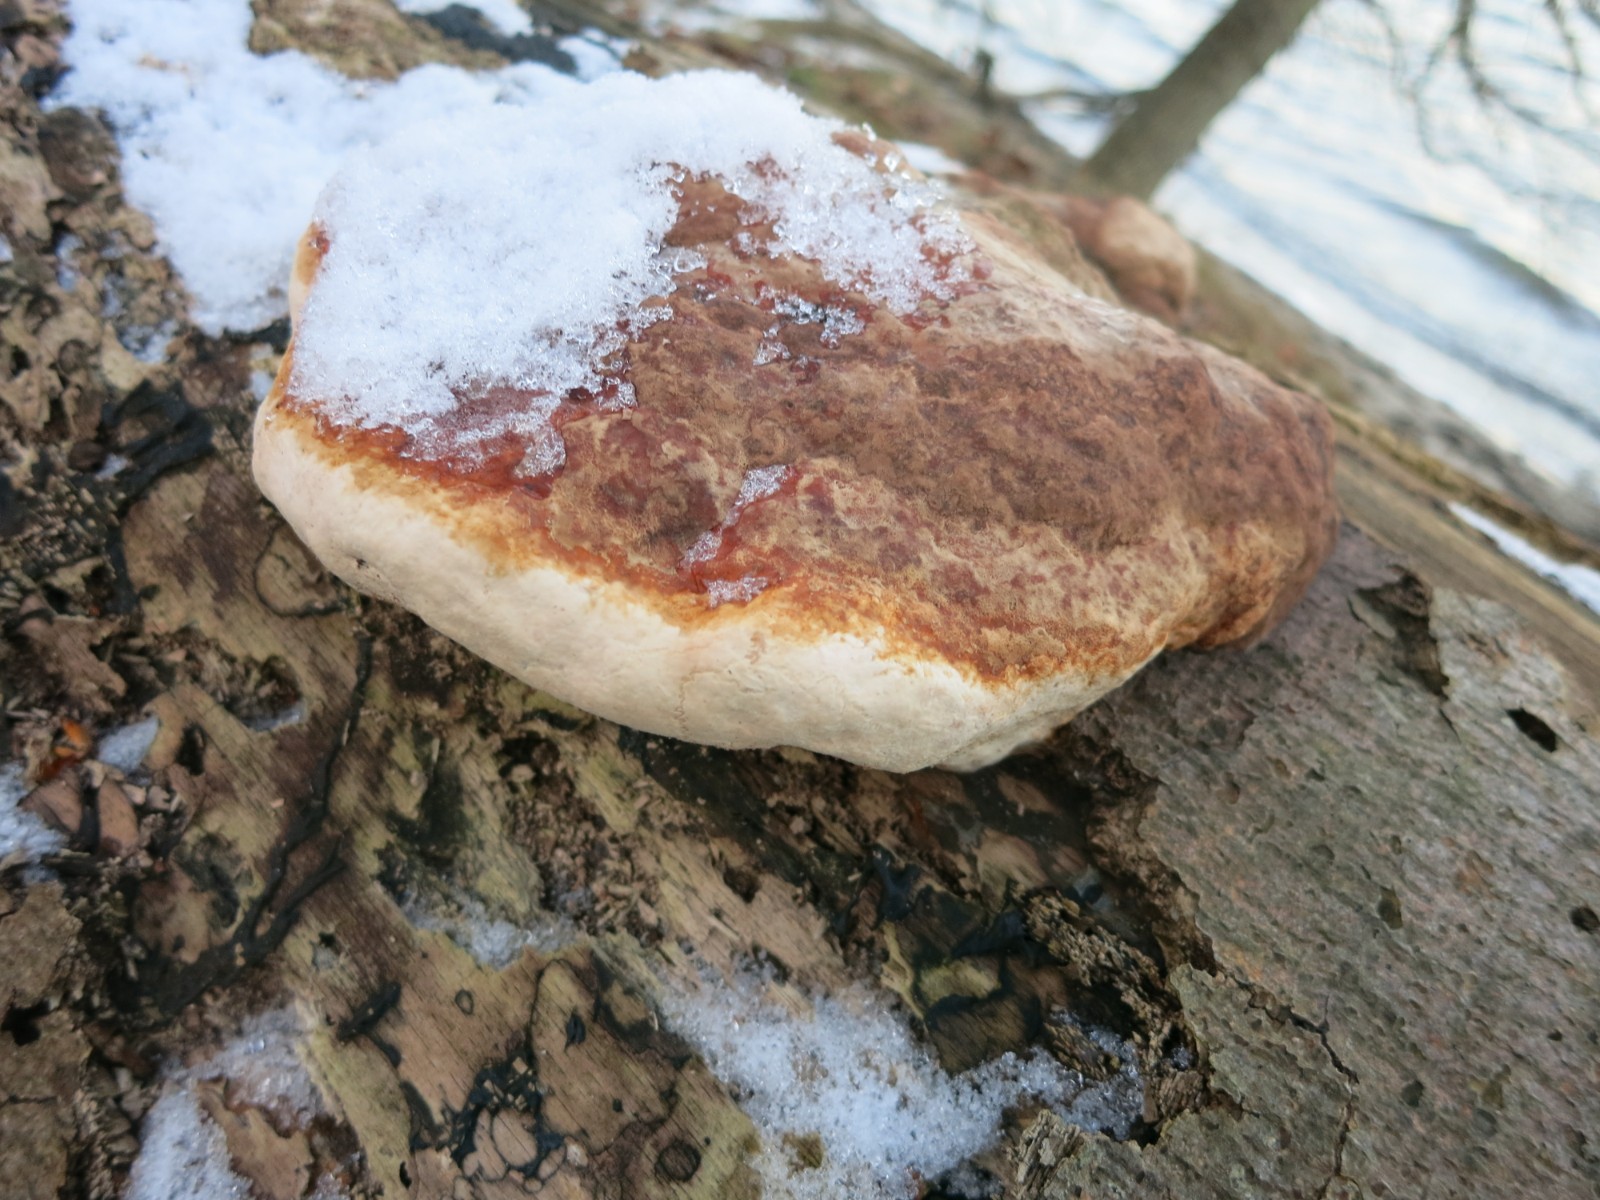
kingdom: Fungi
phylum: Basidiomycota
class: Agaricomycetes
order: Polyporales
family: Fomitopsidaceae
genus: Fomitopsis
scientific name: Fomitopsis pinicola
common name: randbæltet hovporesvamp
